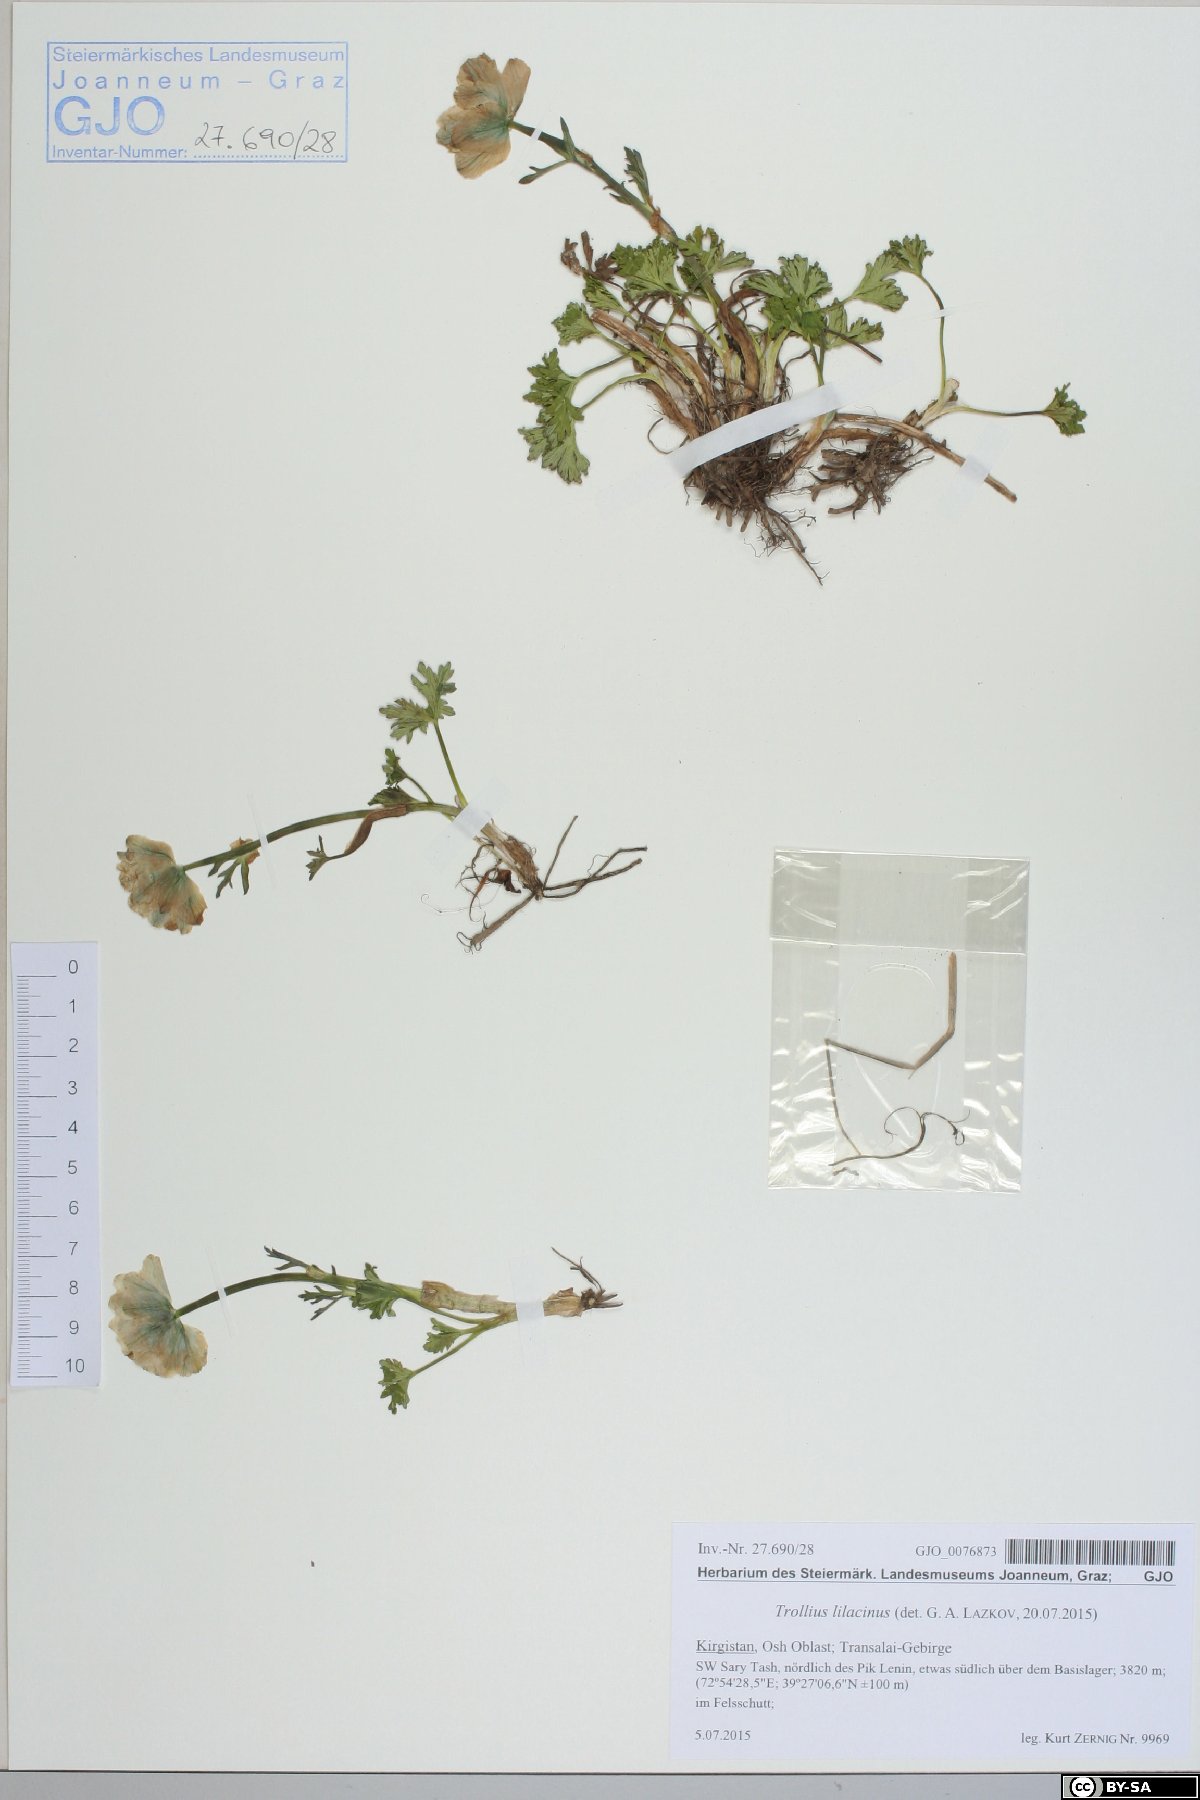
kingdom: Plantae
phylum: Tracheophyta
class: Magnoliopsida
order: Ranunculales
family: Ranunculaceae
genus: Trollius
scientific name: Trollius lilacinus
